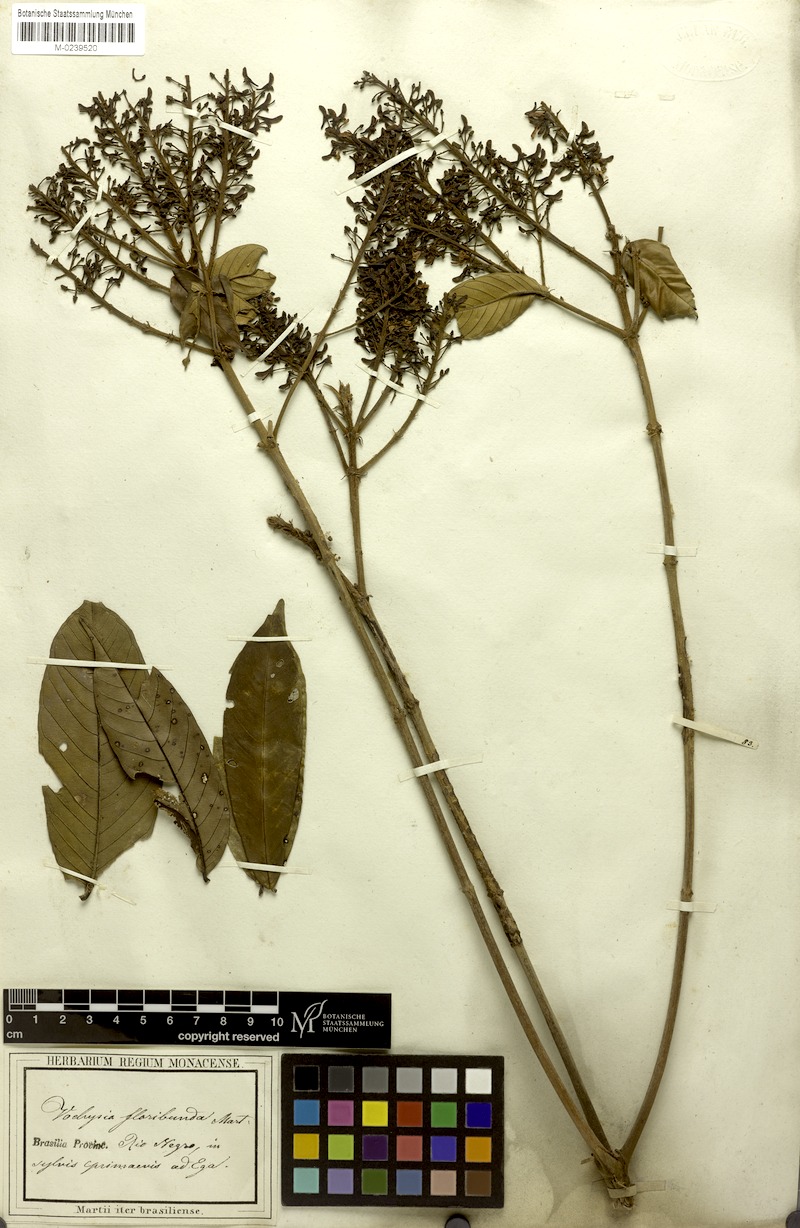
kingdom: Plantae
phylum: Tracheophyta
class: Magnoliopsida
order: Myrtales
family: Vochysiaceae
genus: Vochysia
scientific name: Vochysia floribunda
